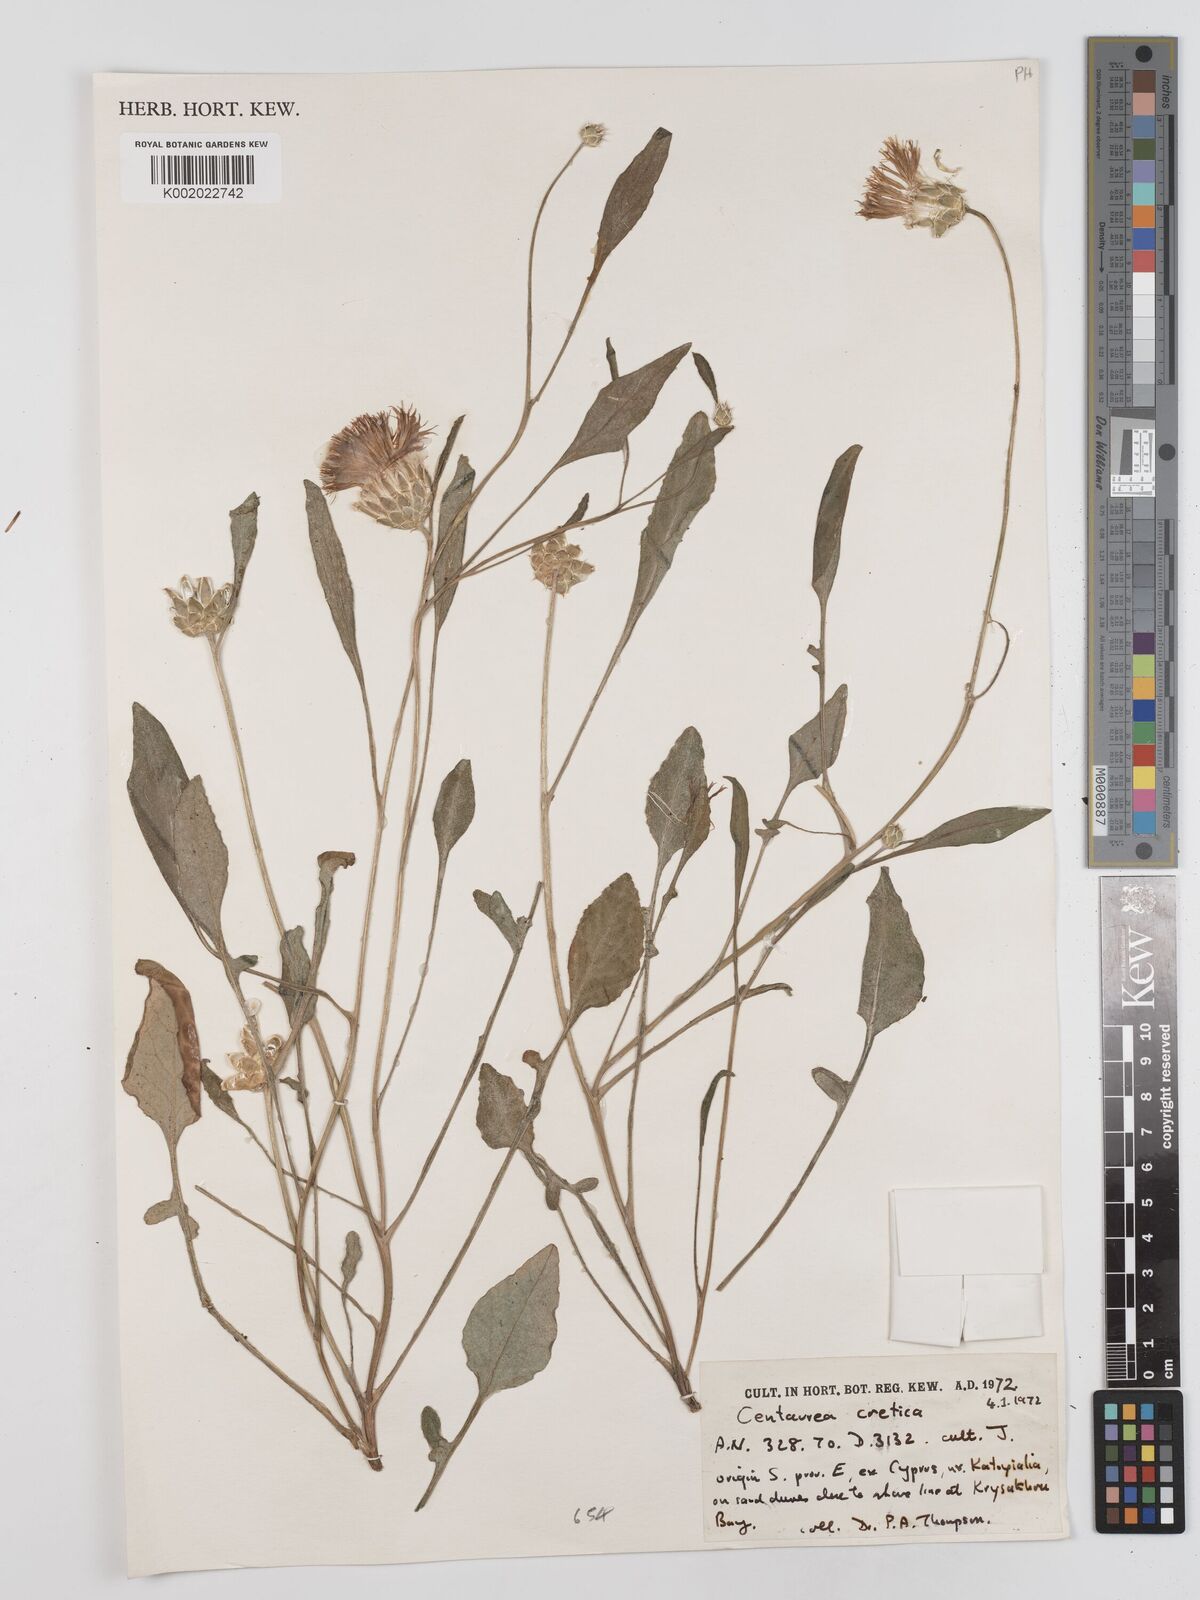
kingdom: Plantae
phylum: Tracheophyta
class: Magnoliopsida
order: Asterales
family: Asteraceae
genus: Centaurea
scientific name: Centaurea
